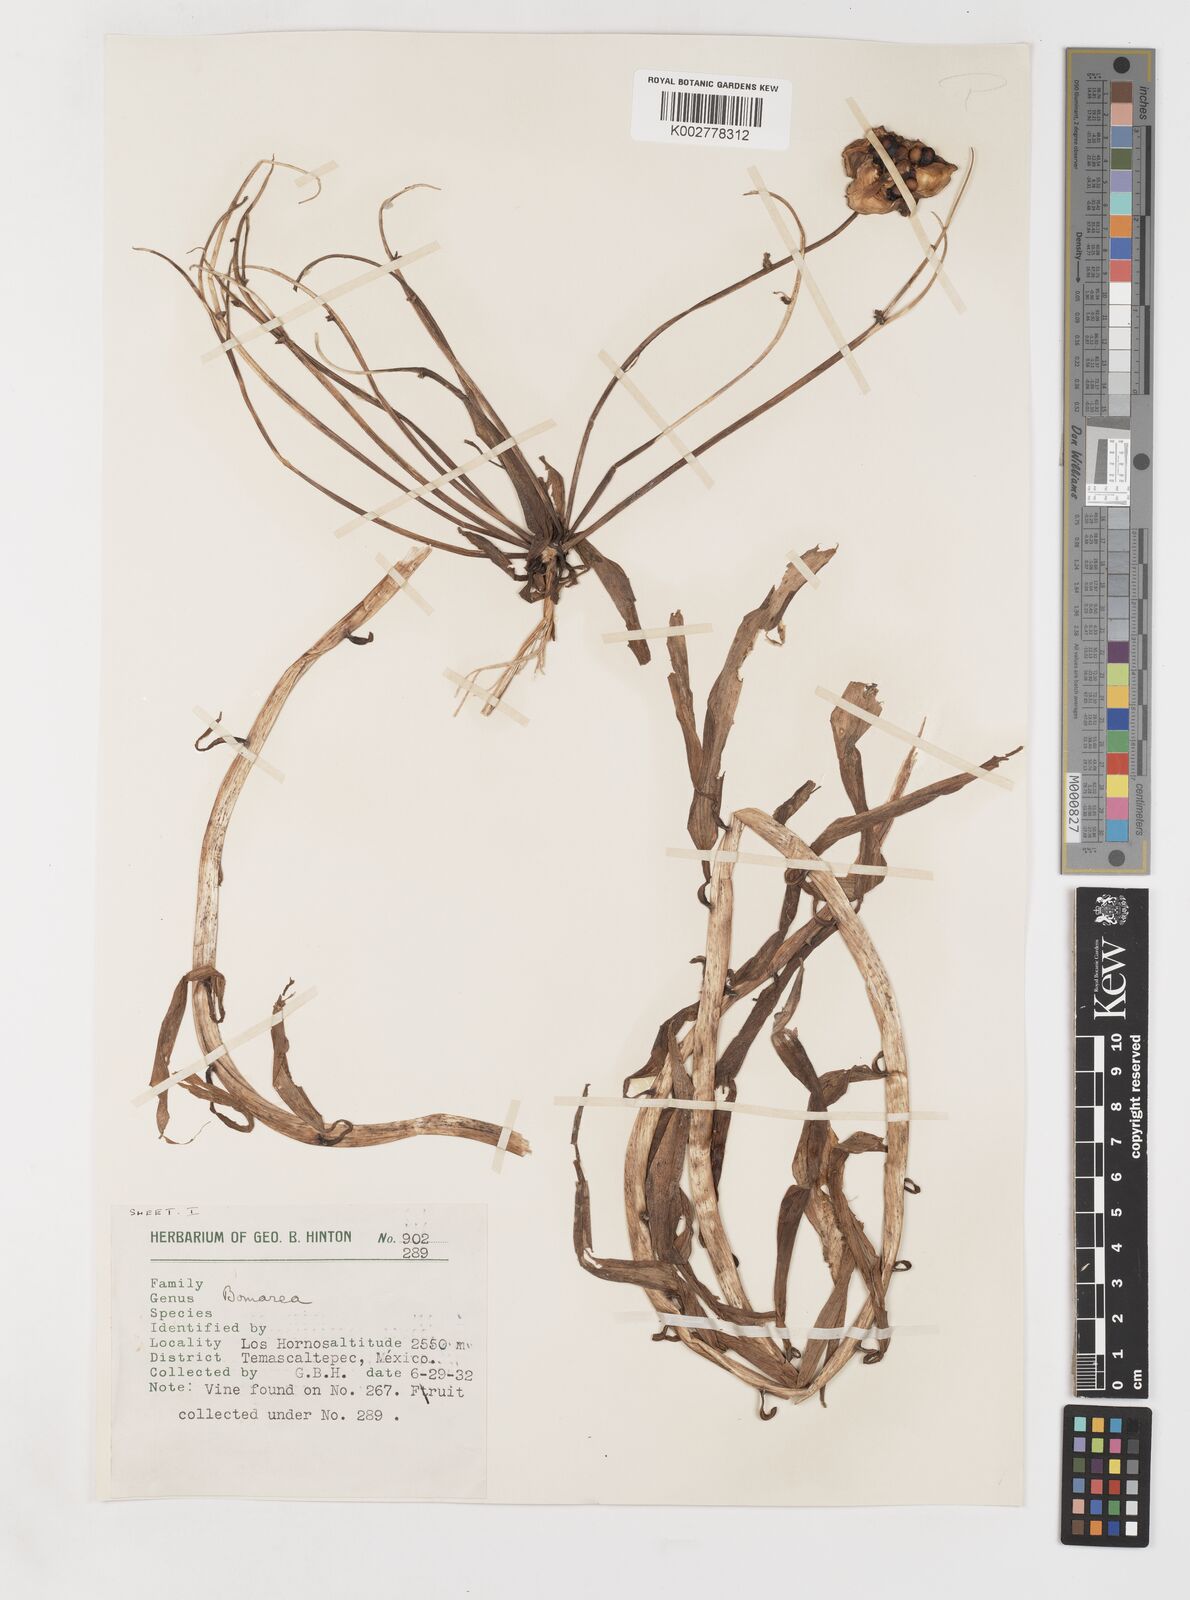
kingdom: Plantae
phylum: Tracheophyta
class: Liliopsida
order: Liliales
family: Alstroemeriaceae
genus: Bomarea
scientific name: Bomarea edulis
